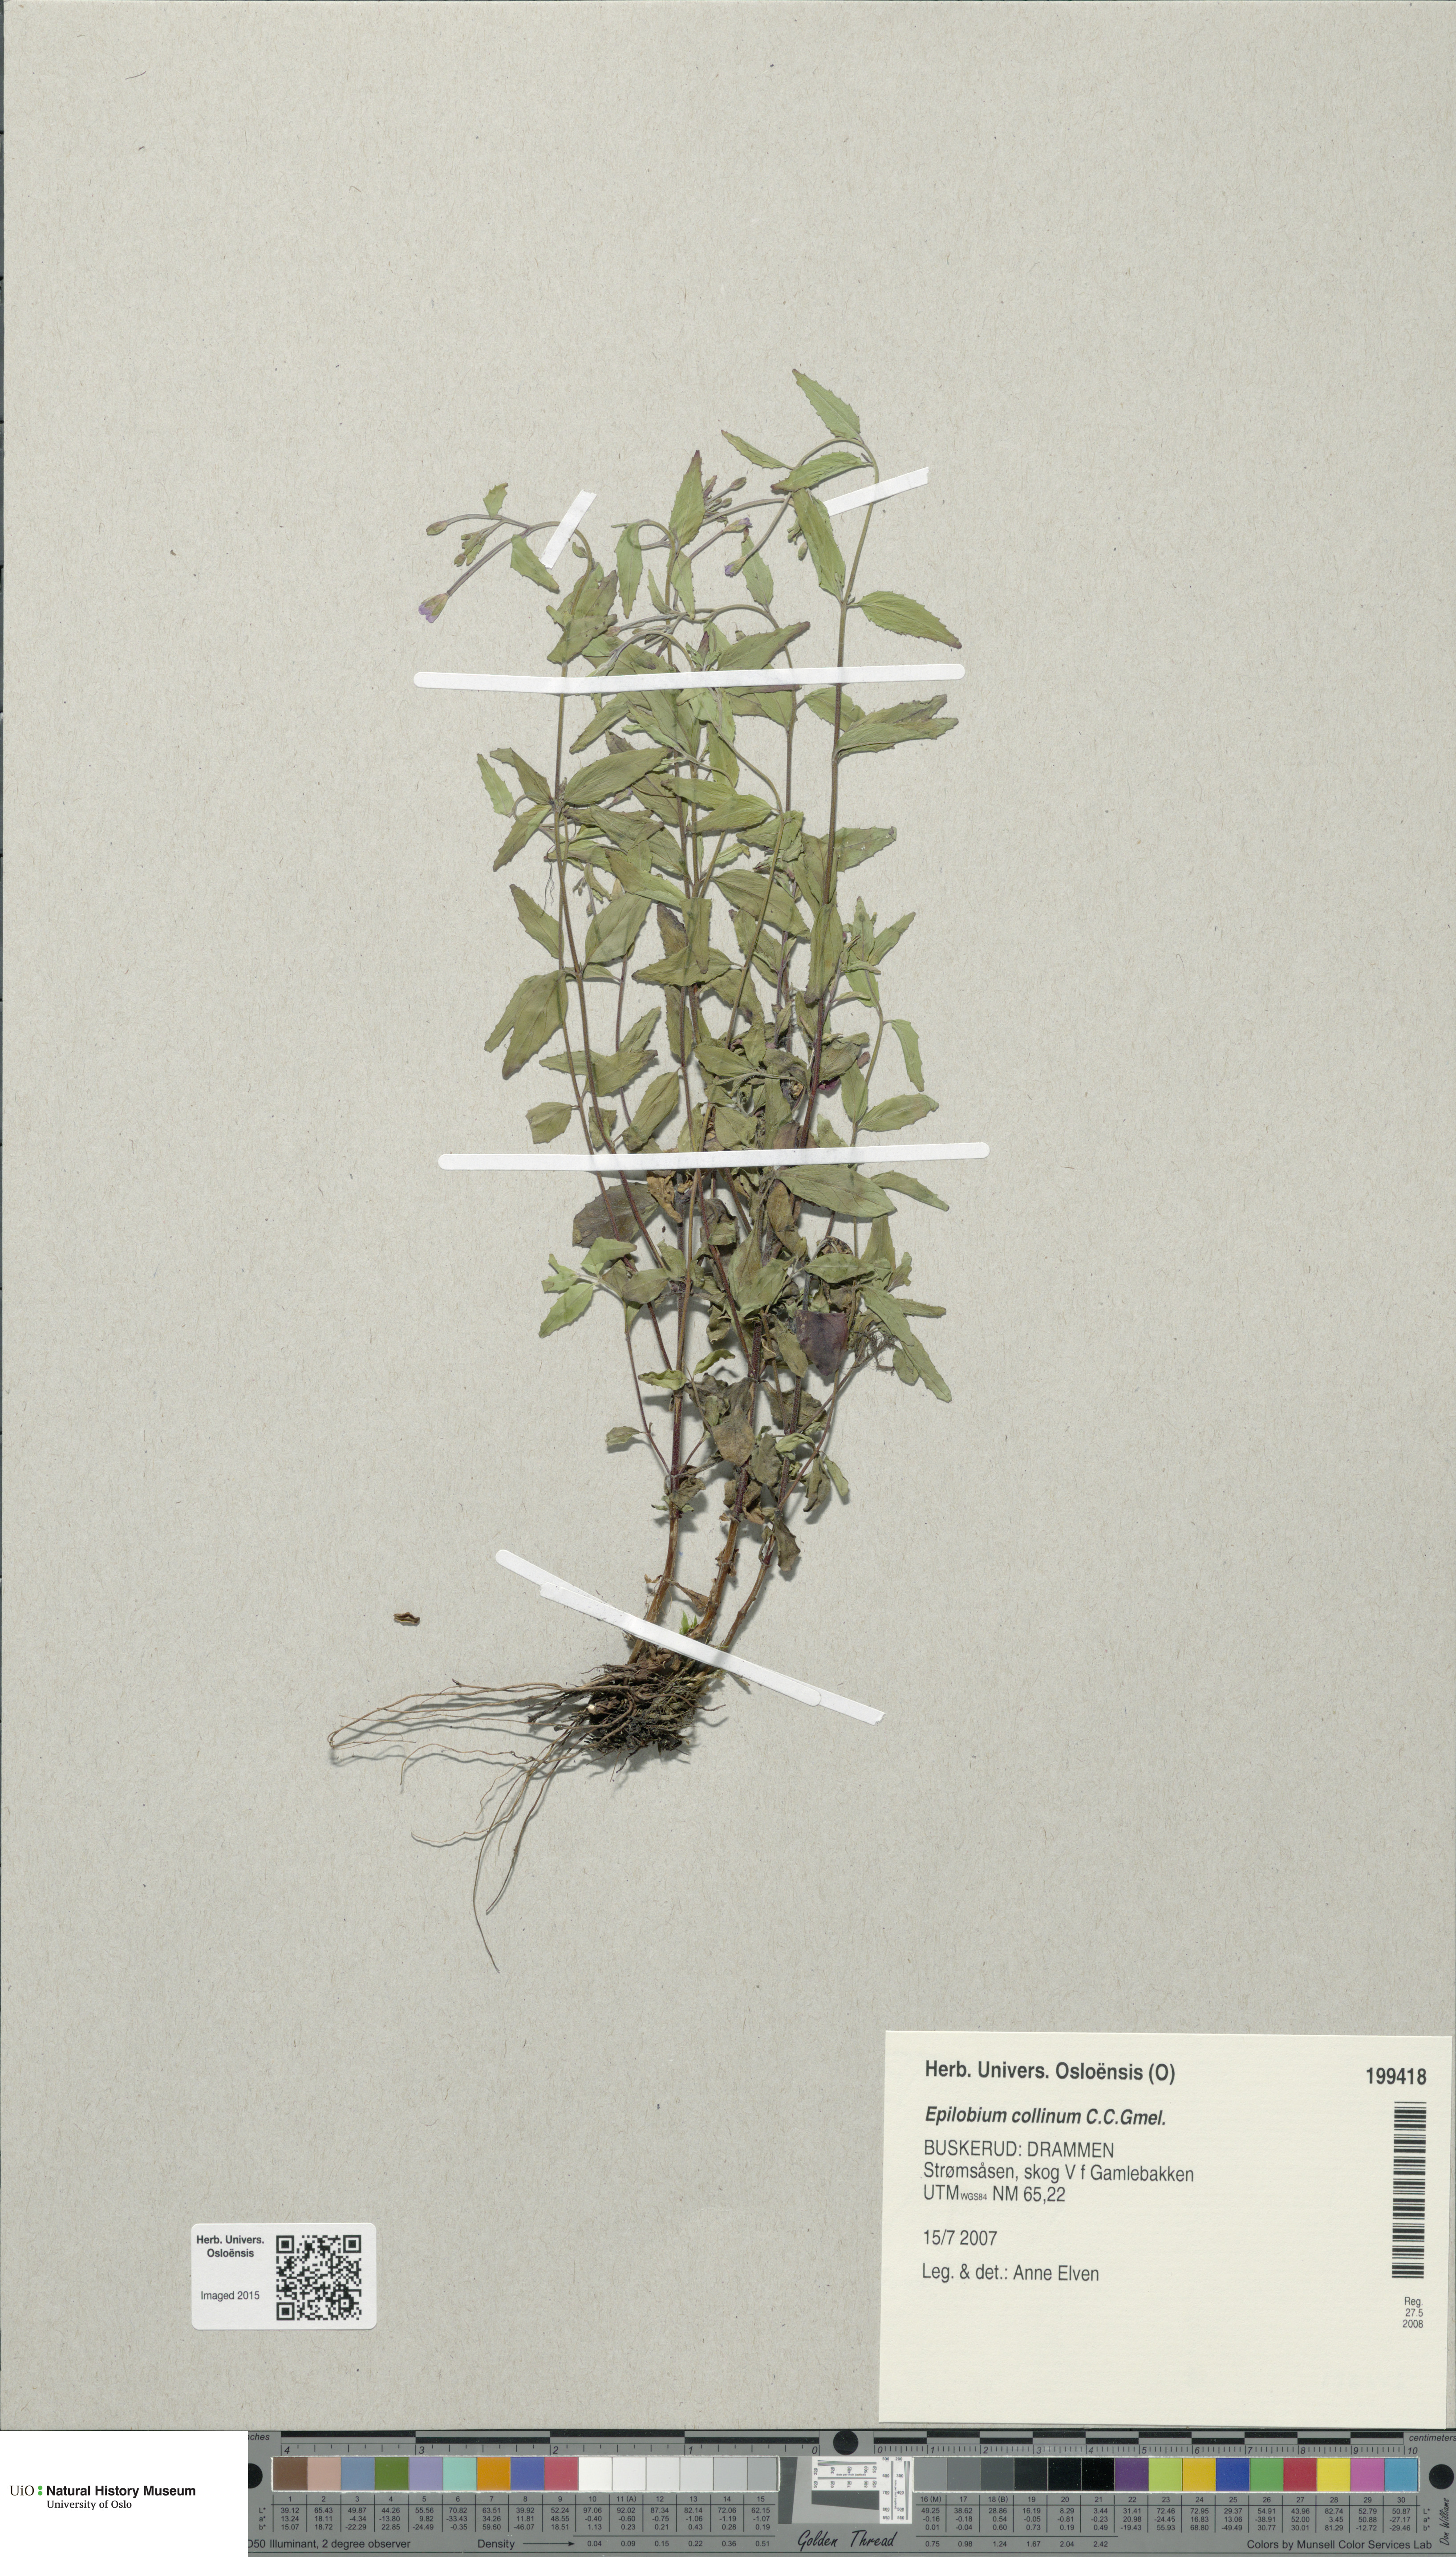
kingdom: Plantae
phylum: Tracheophyta
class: Magnoliopsida
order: Myrtales
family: Onagraceae
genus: Epilobium
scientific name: Epilobium collinum
